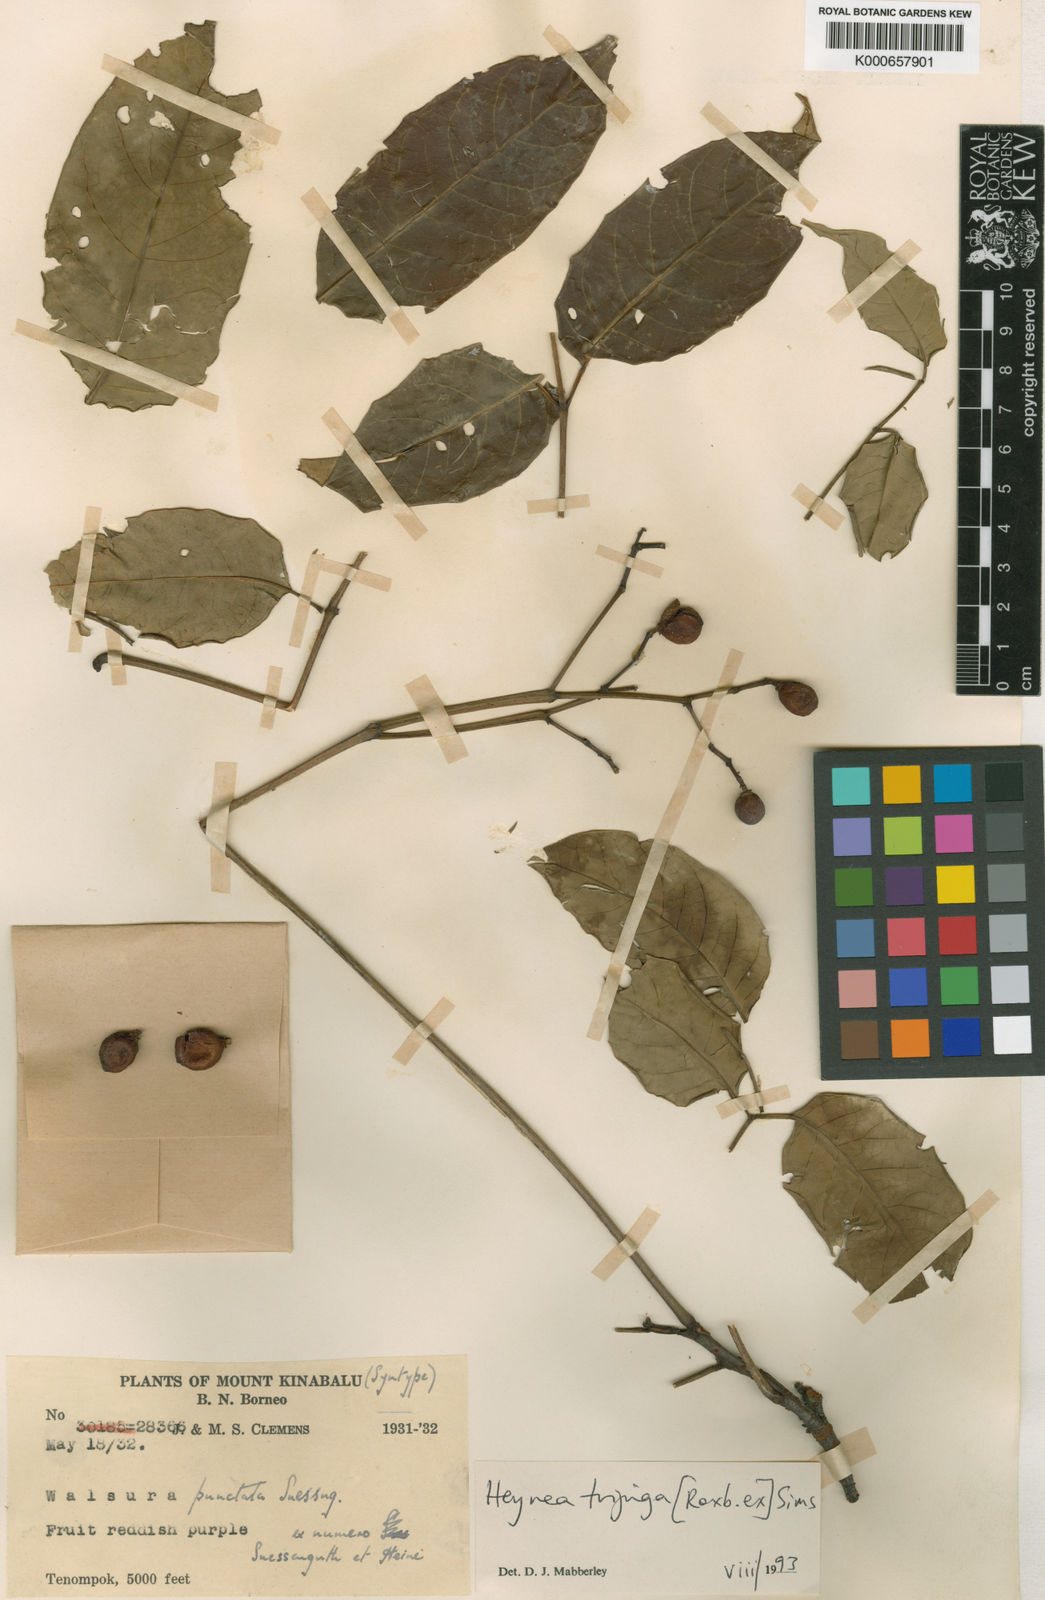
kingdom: Plantae
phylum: Tracheophyta
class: Magnoliopsida
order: Sapindales
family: Meliaceae
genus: Heynea
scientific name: Heynea trijuga
